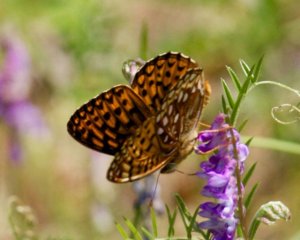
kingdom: Animalia
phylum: Arthropoda
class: Insecta
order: Lepidoptera
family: Nymphalidae
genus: Speyeria
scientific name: Speyeria atlantis
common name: Atlantis Fritillary
